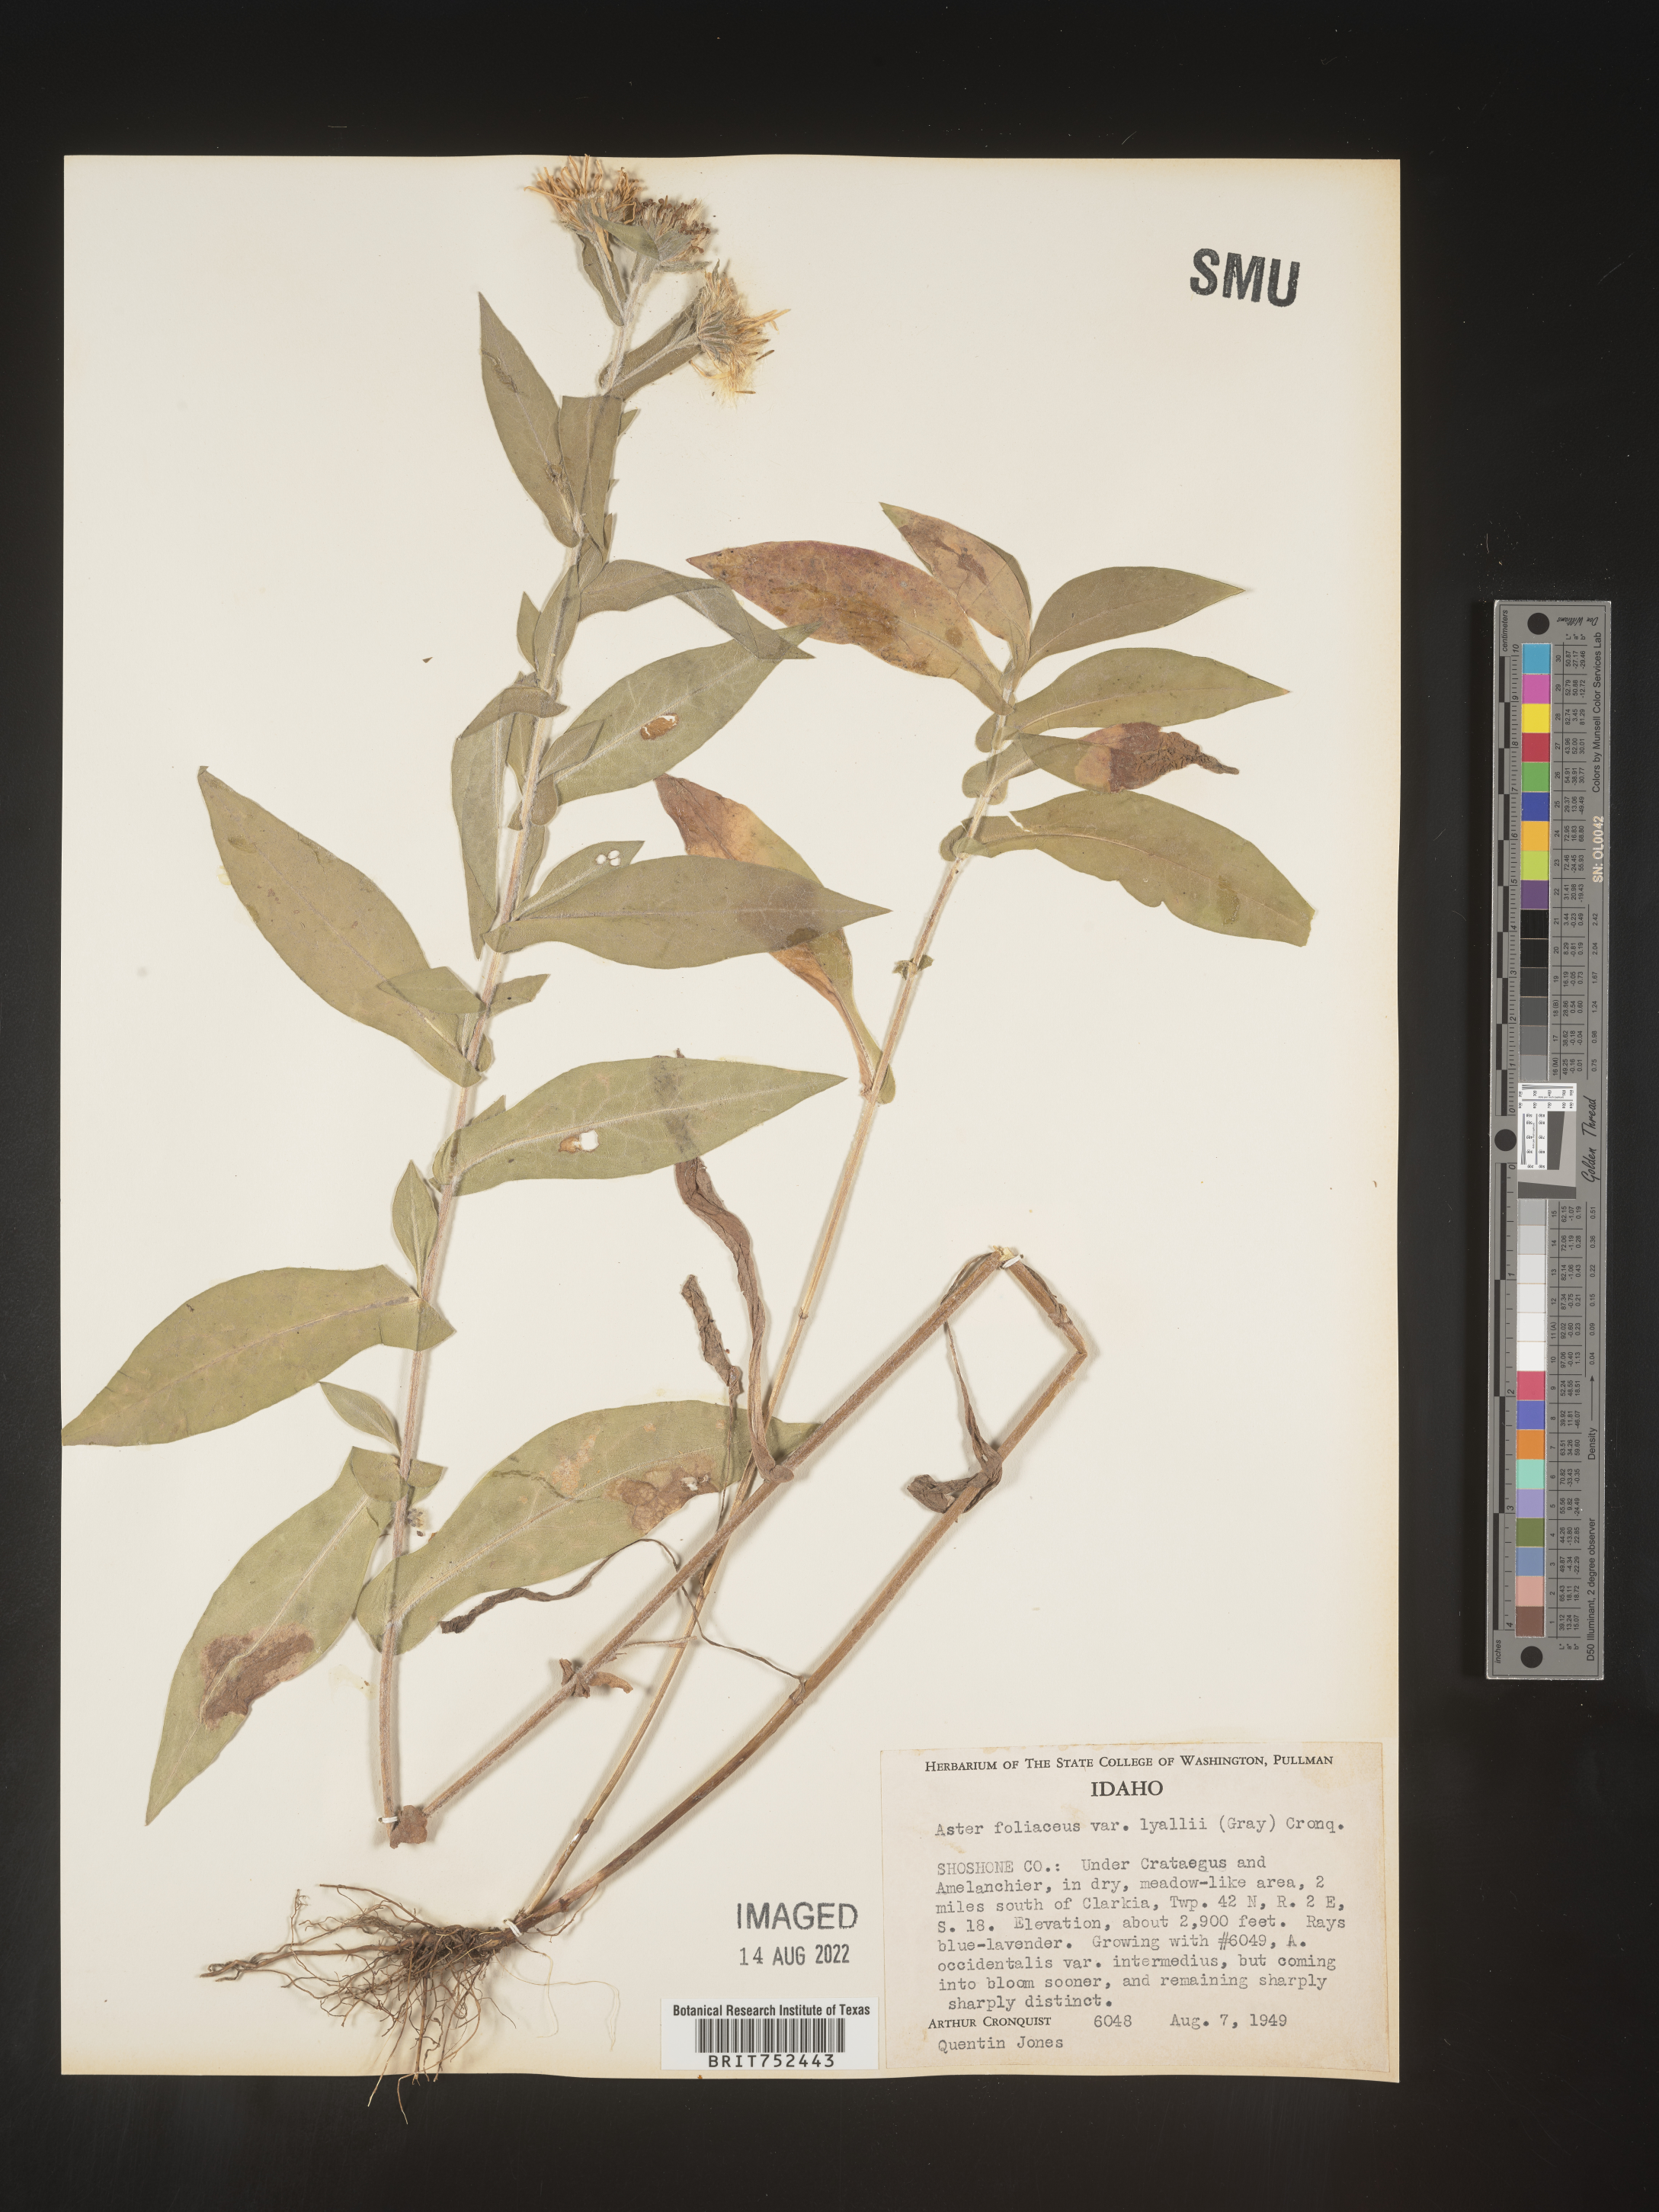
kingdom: Plantae
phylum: Tracheophyta
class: Magnoliopsida
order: Asterales
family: Asteraceae
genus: Symphyotrichum
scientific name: Symphyotrichum jessicae
